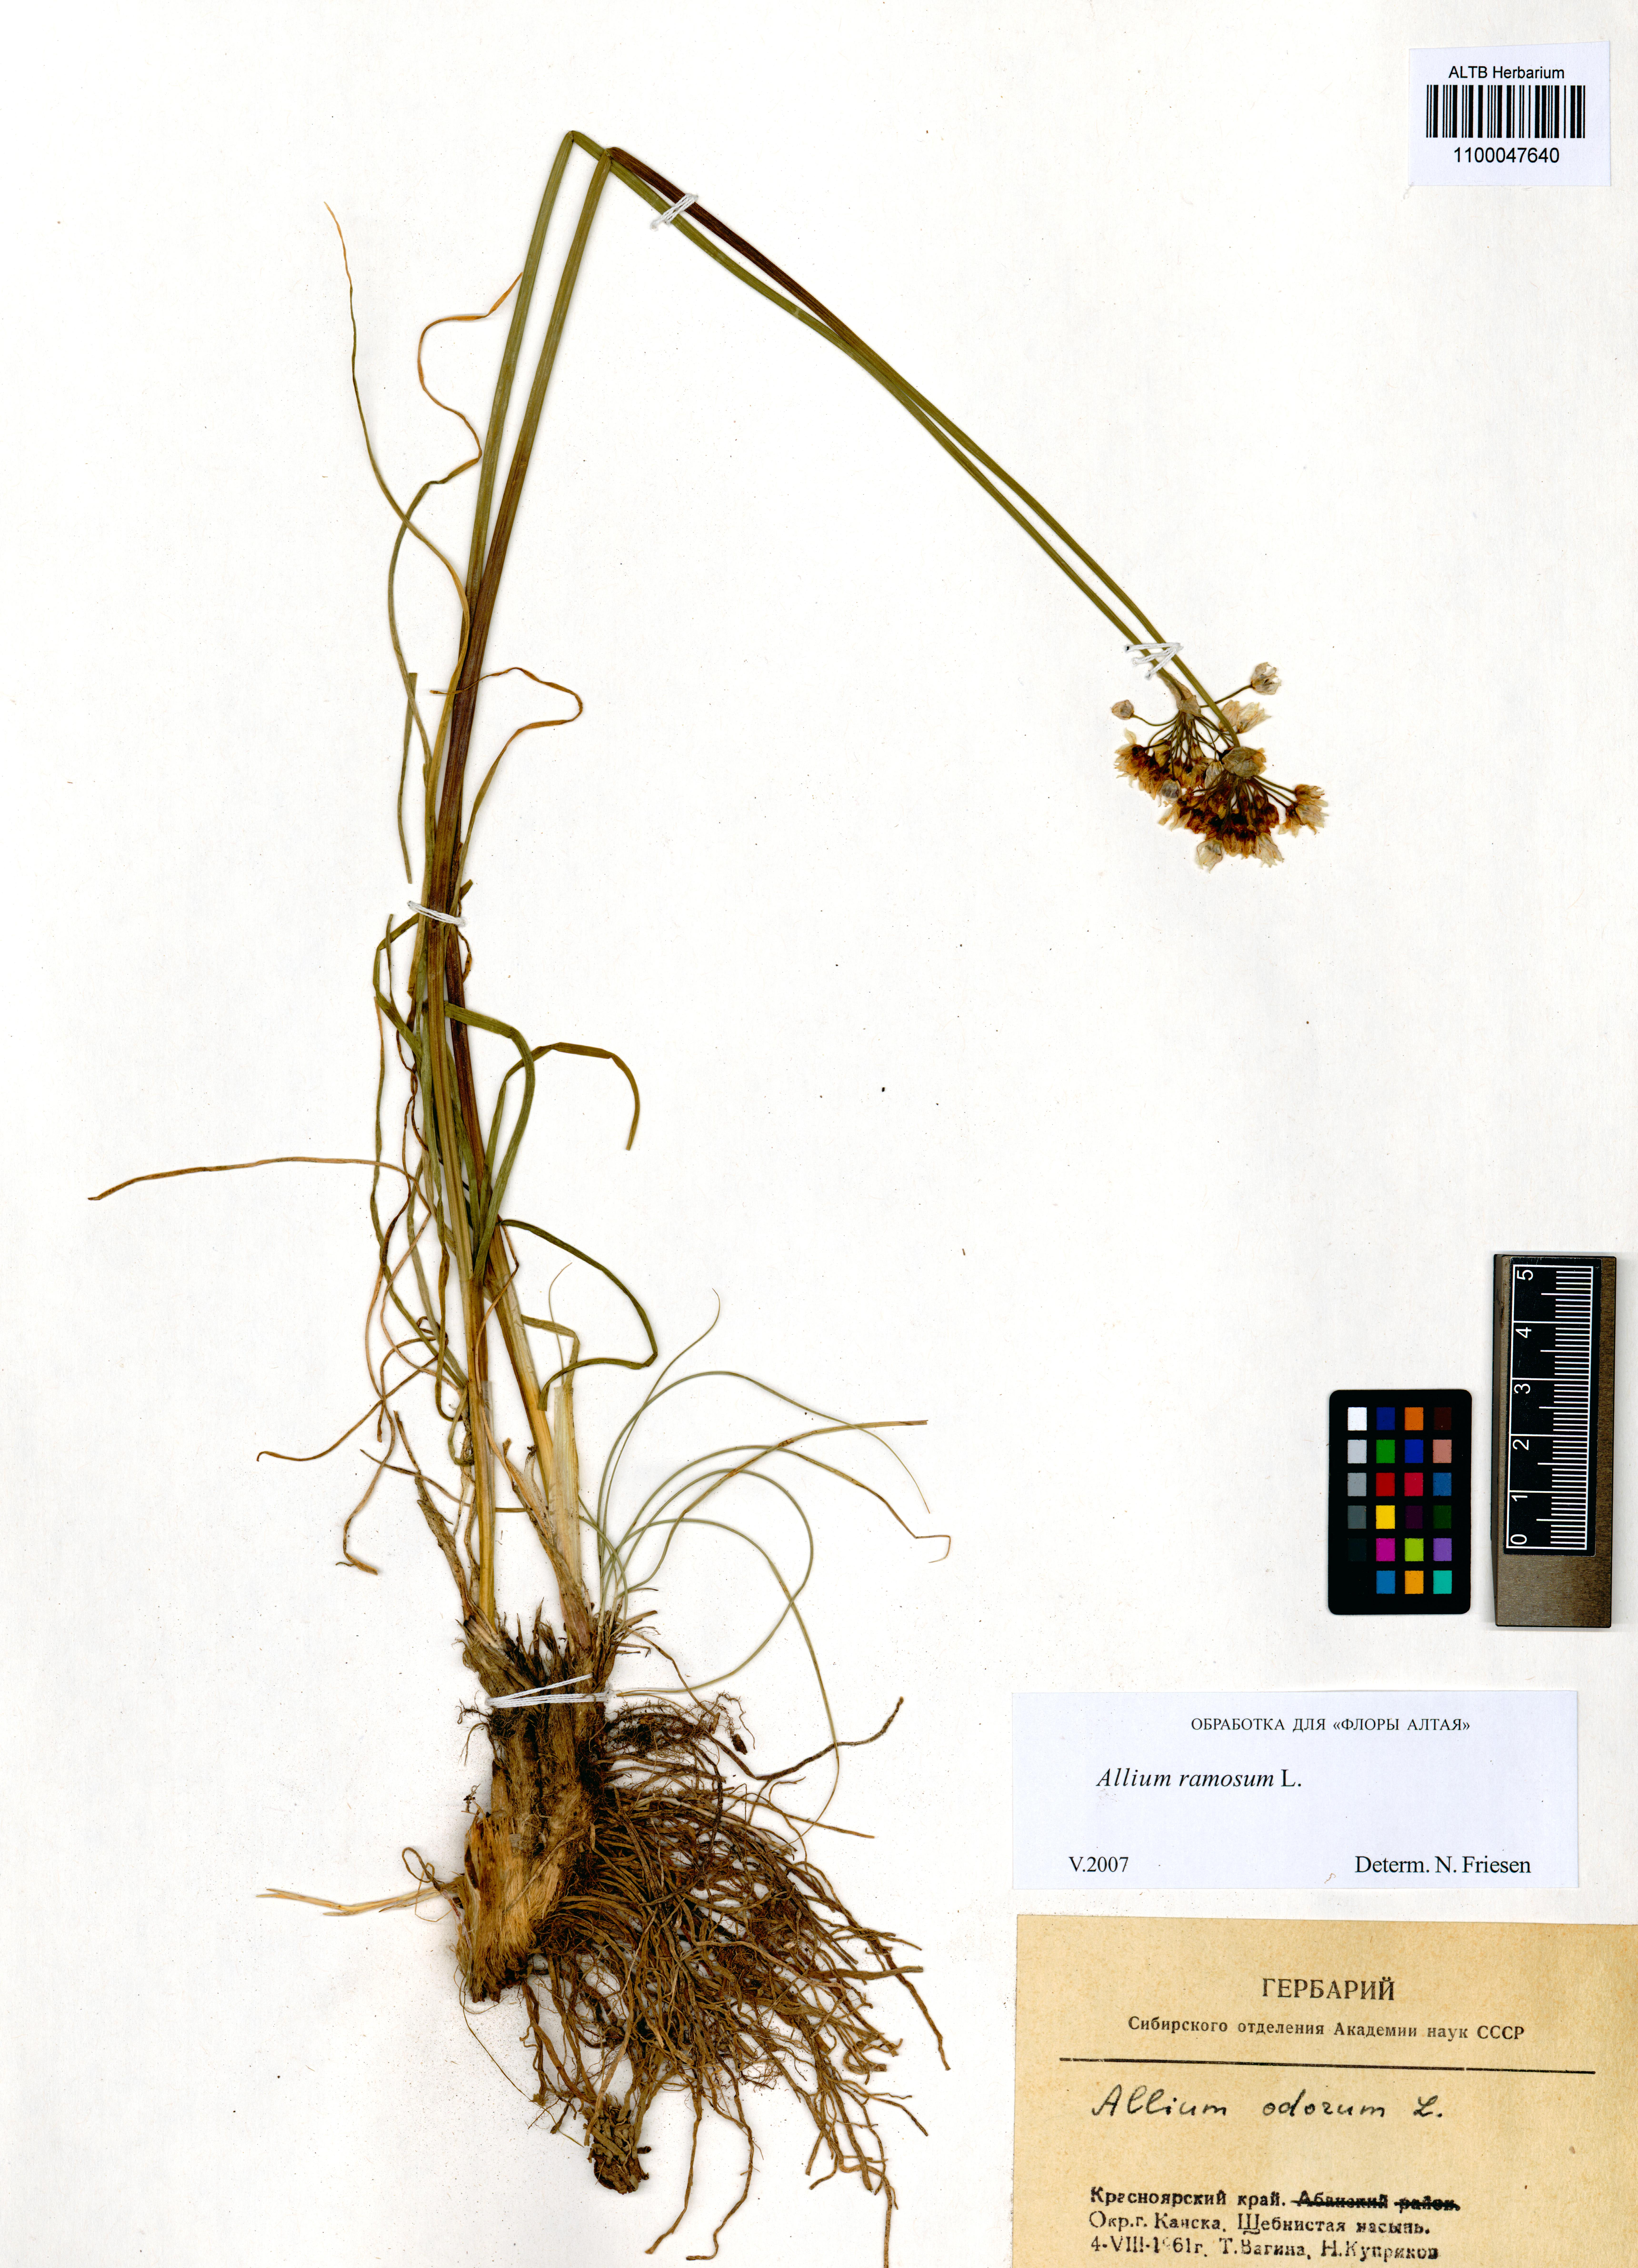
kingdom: Plantae
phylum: Tracheophyta
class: Liliopsida
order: Asparagales
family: Amaryllidaceae
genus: Allium
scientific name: Allium ramosum
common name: Fragrant garlic
